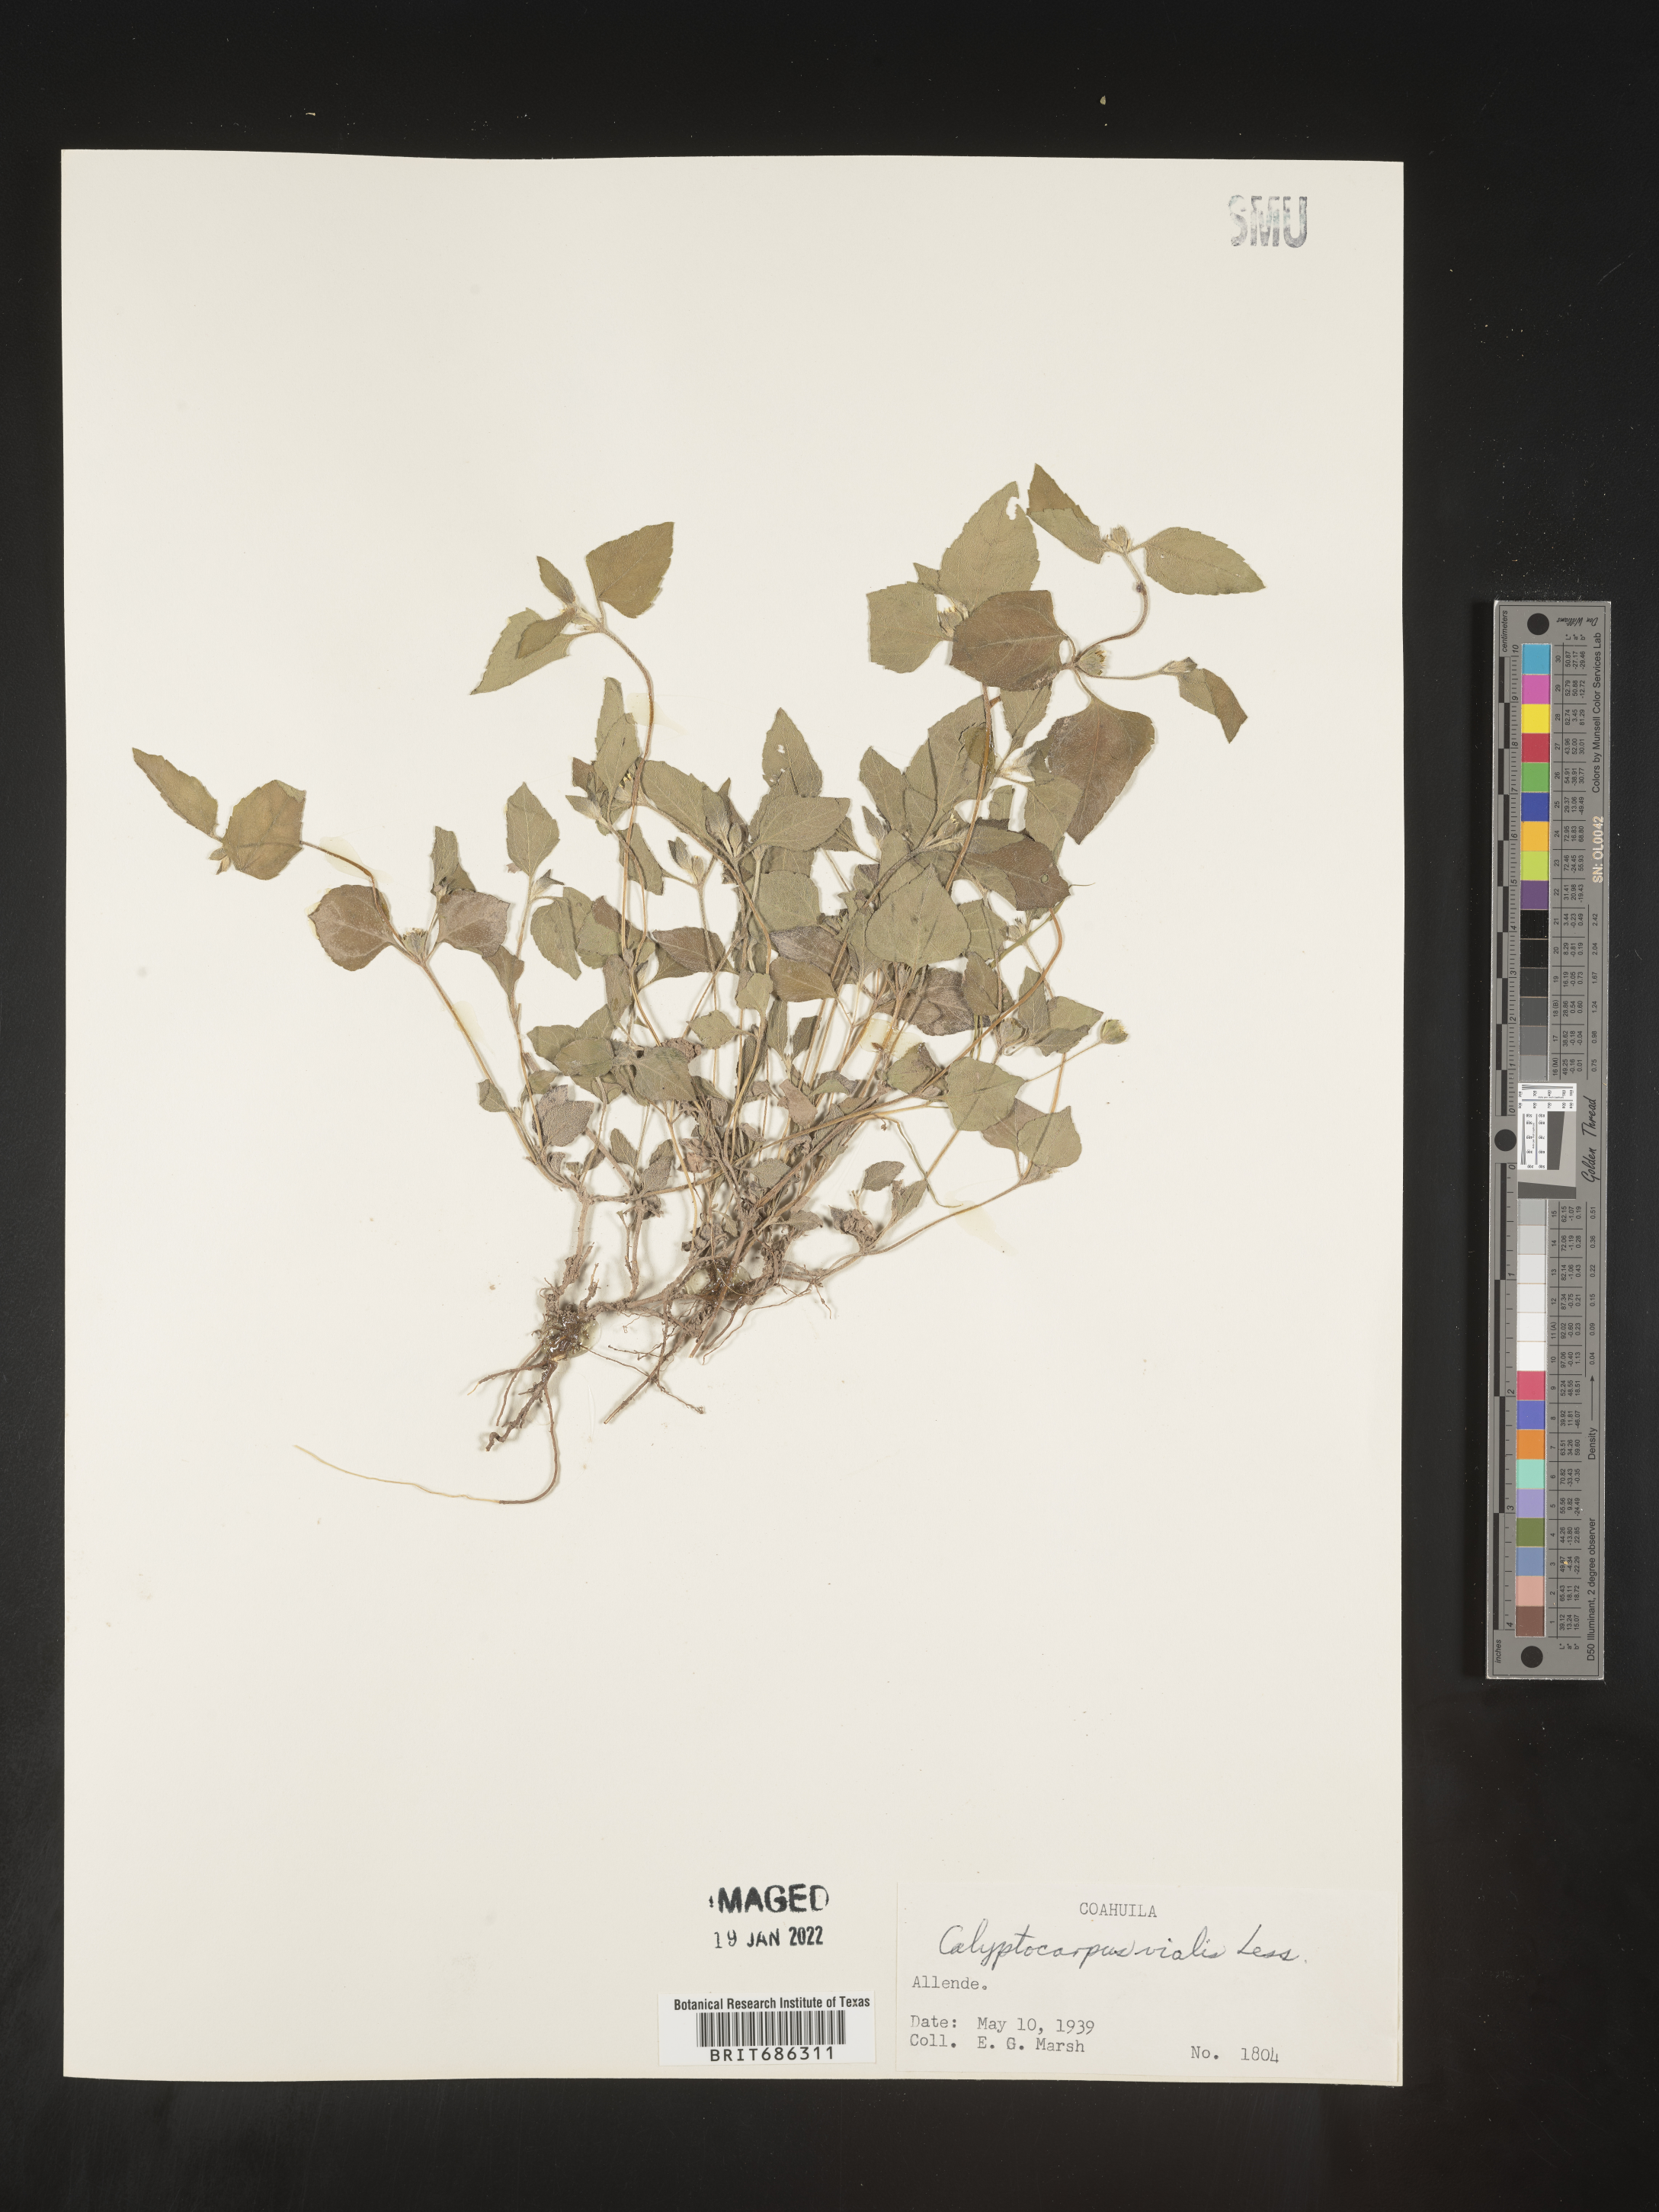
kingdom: Plantae
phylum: Tracheophyta
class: Magnoliopsida
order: Asterales
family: Asteraceae
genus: Calyptocarpus
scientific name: Calyptocarpus
